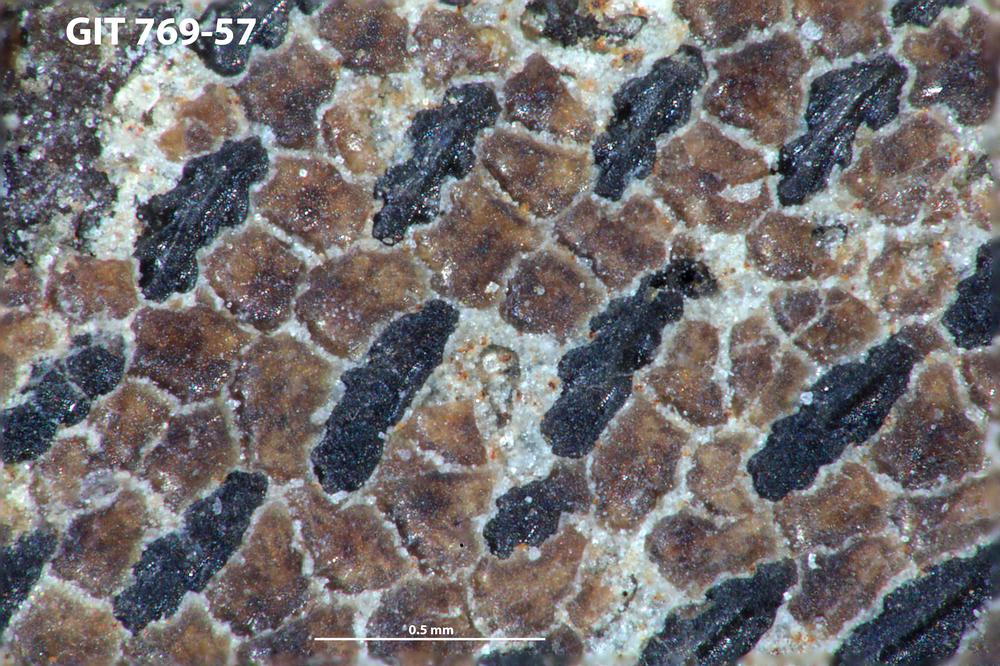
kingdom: Animalia
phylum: Chordata
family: Dartmuthiidae
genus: Dartmuthia
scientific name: Dartmuthia
